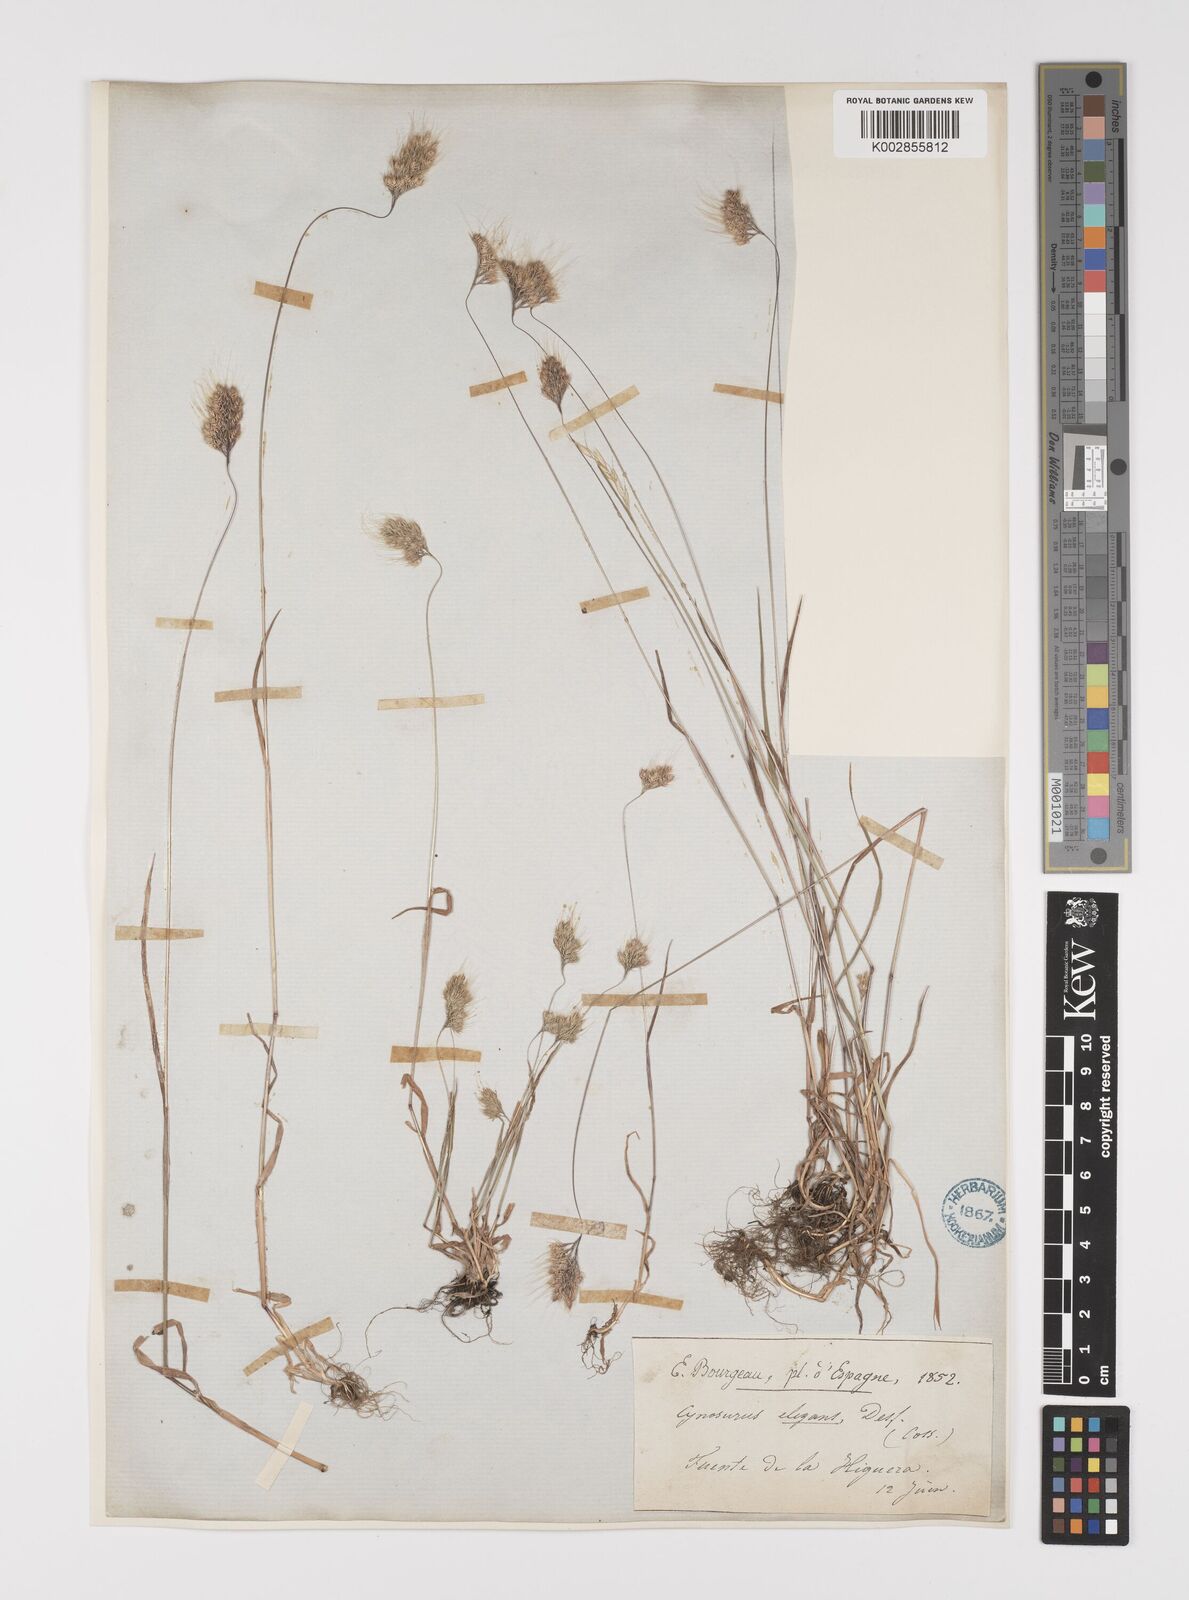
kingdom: Plantae
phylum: Tracheophyta
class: Liliopsida
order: Poales
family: Poaceae
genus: Cynosurus
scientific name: Cynosurus elegans
